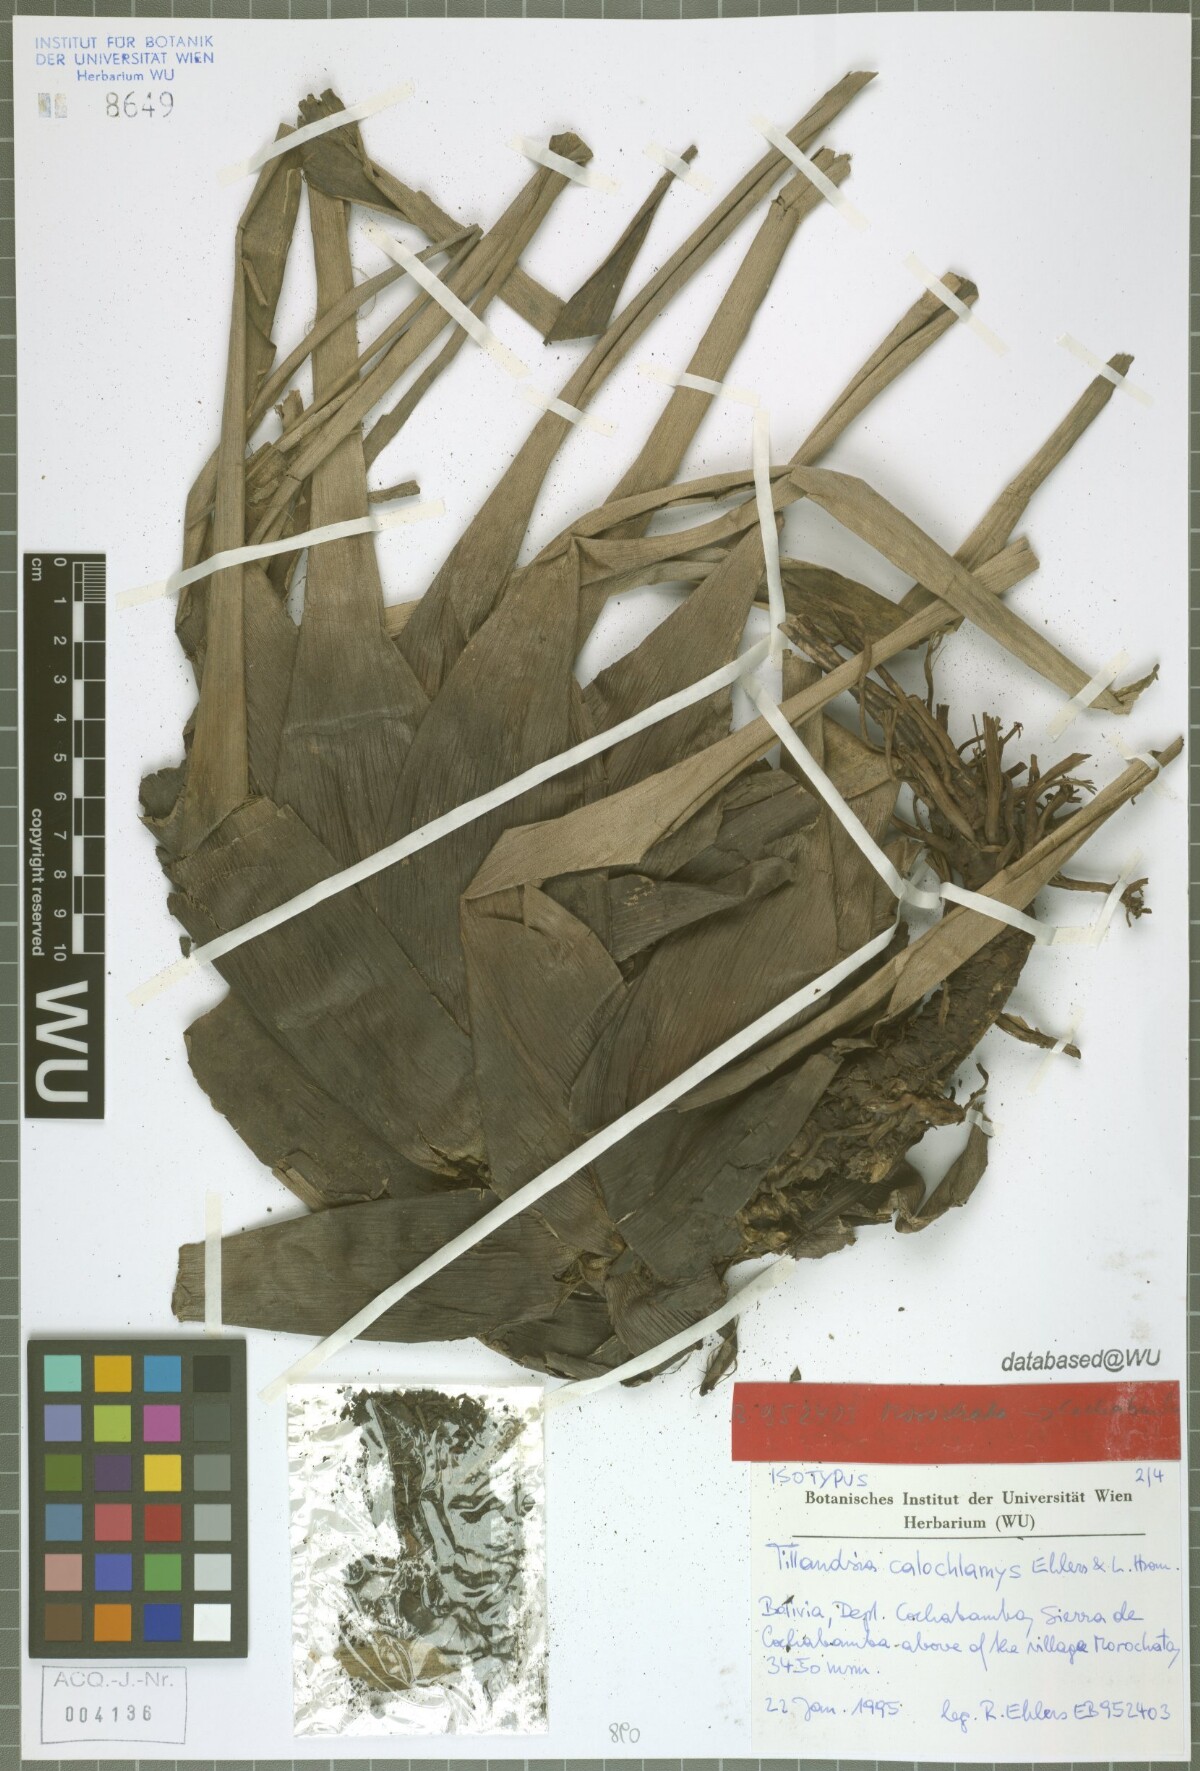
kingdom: Plantae
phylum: Tracheophyta
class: Liliopsida
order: Poales
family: Bromeliaceae
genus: Tillandsia
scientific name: Tillandsia calochlamys
